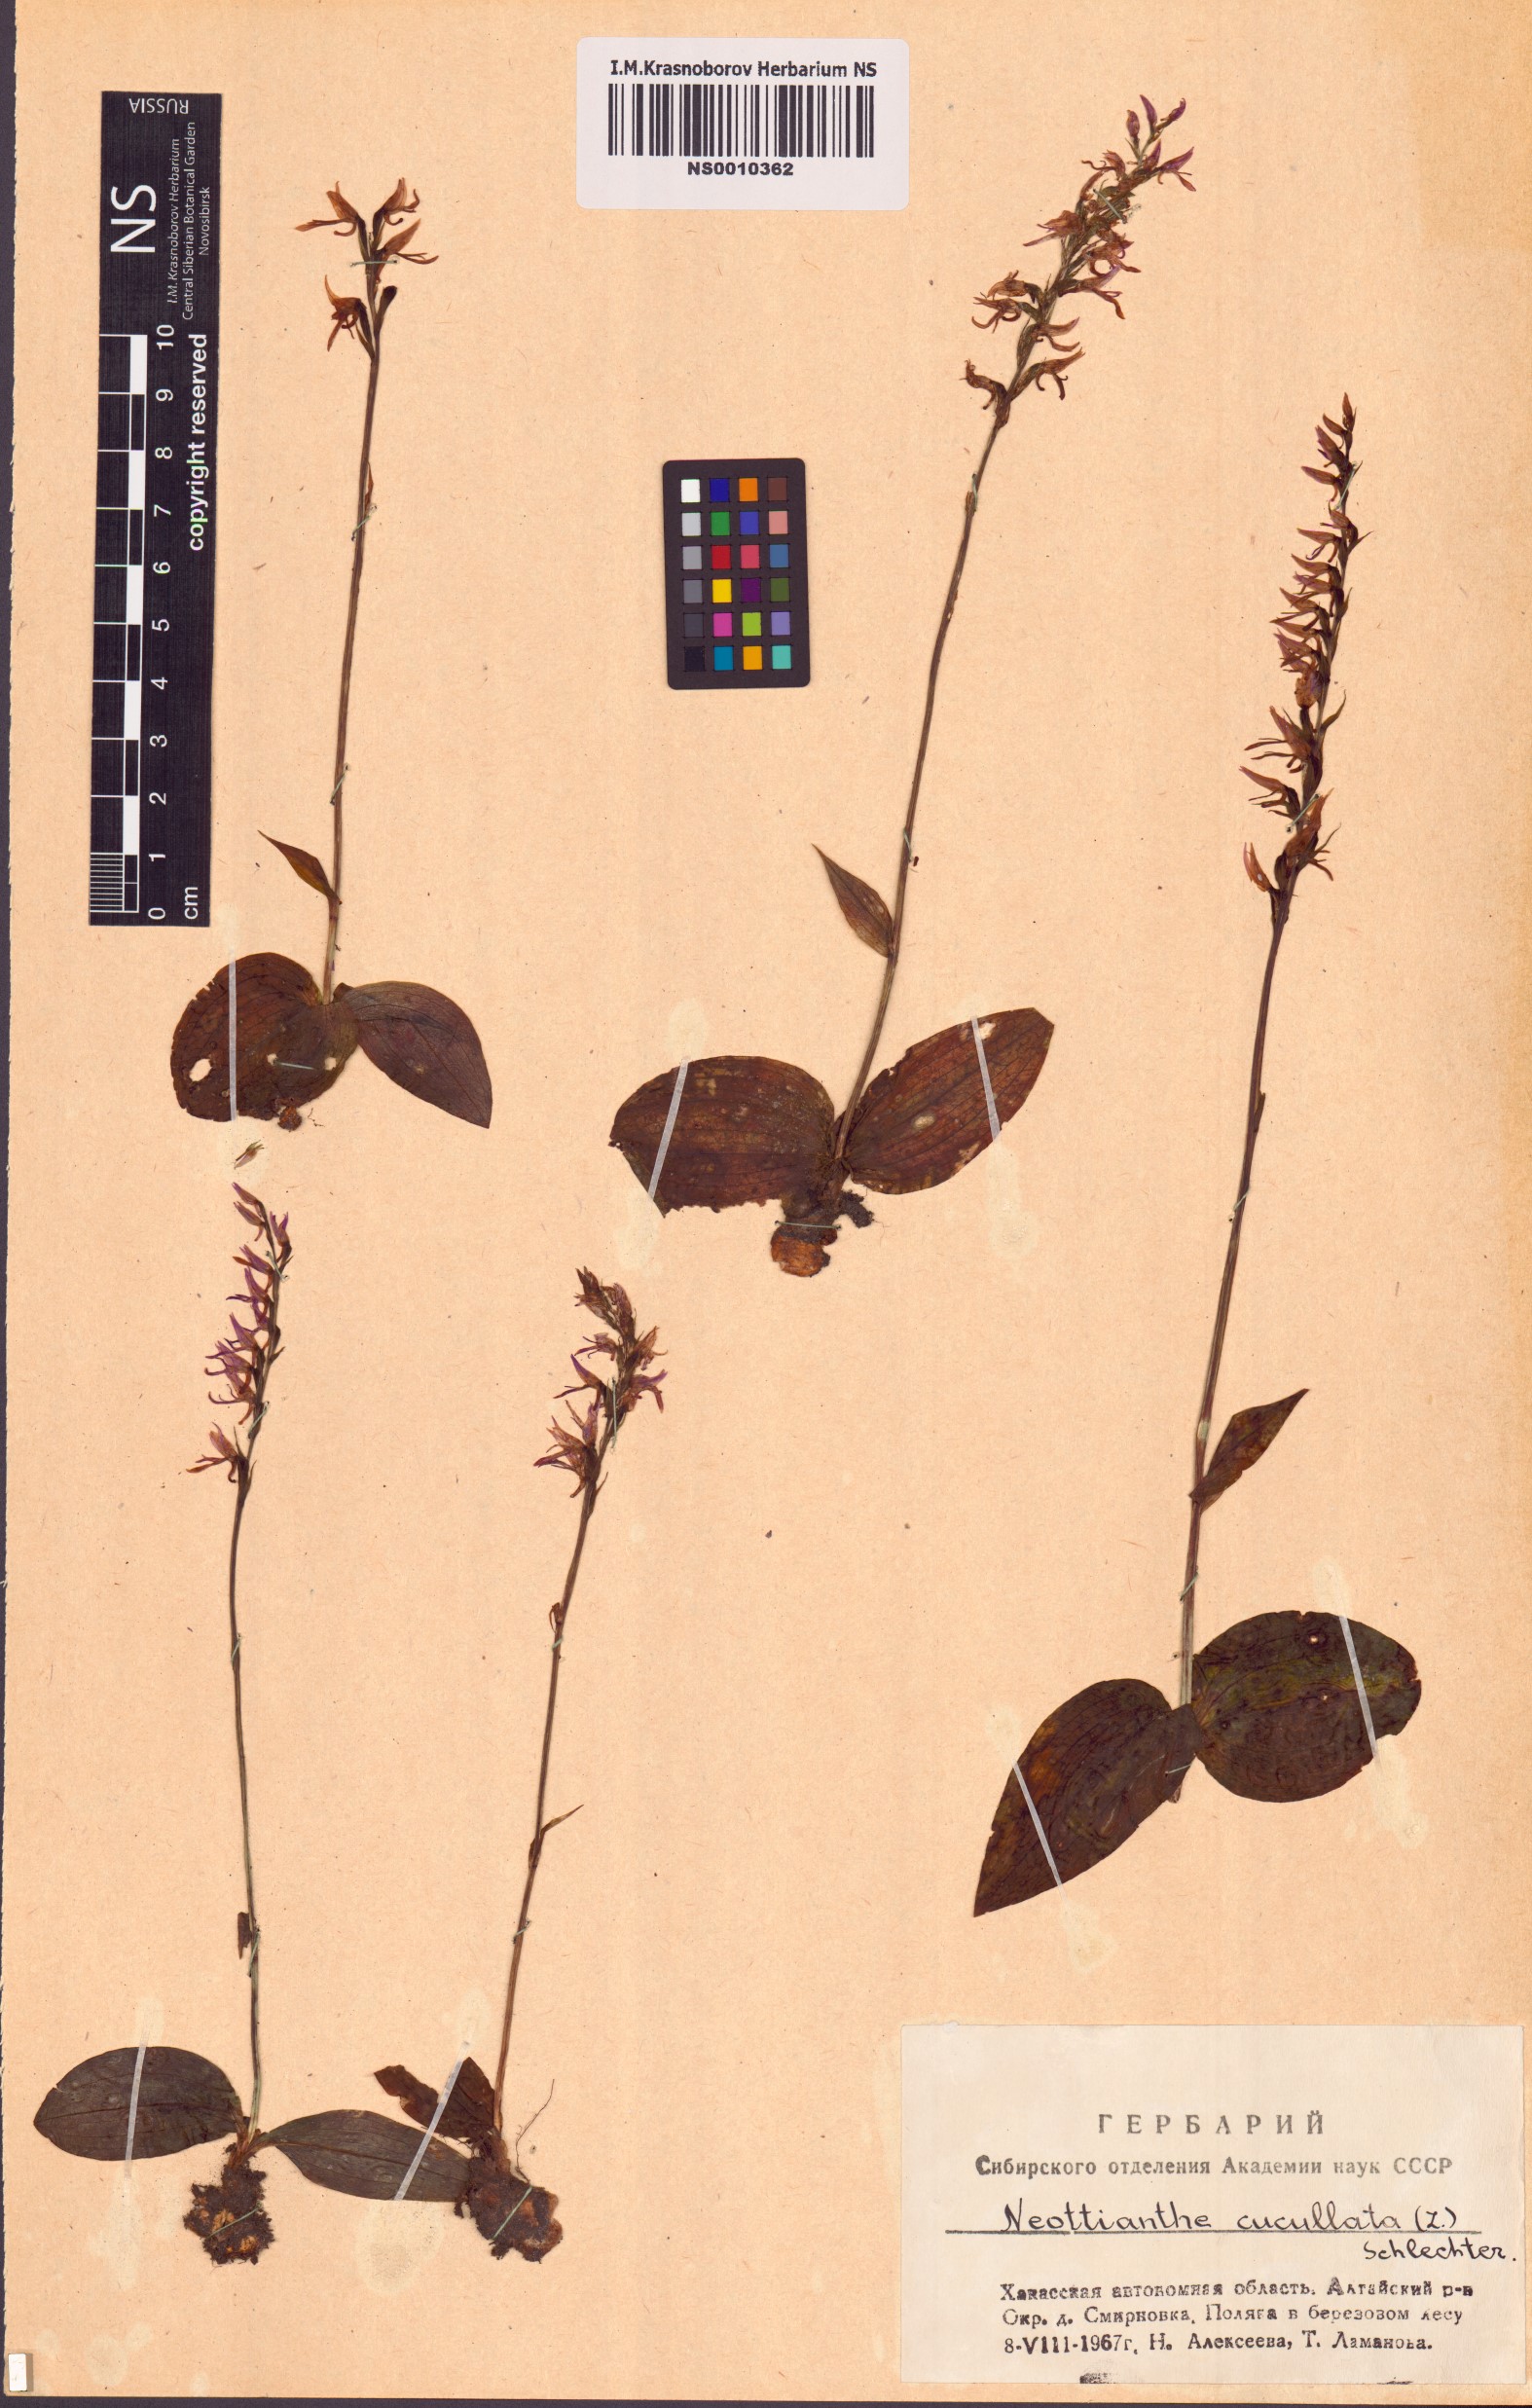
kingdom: Plantae
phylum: Tracheophyta
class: Liliopsida
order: Asparagales
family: Orchidaceae
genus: Hemipilia
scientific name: Hemipilia cucullata
